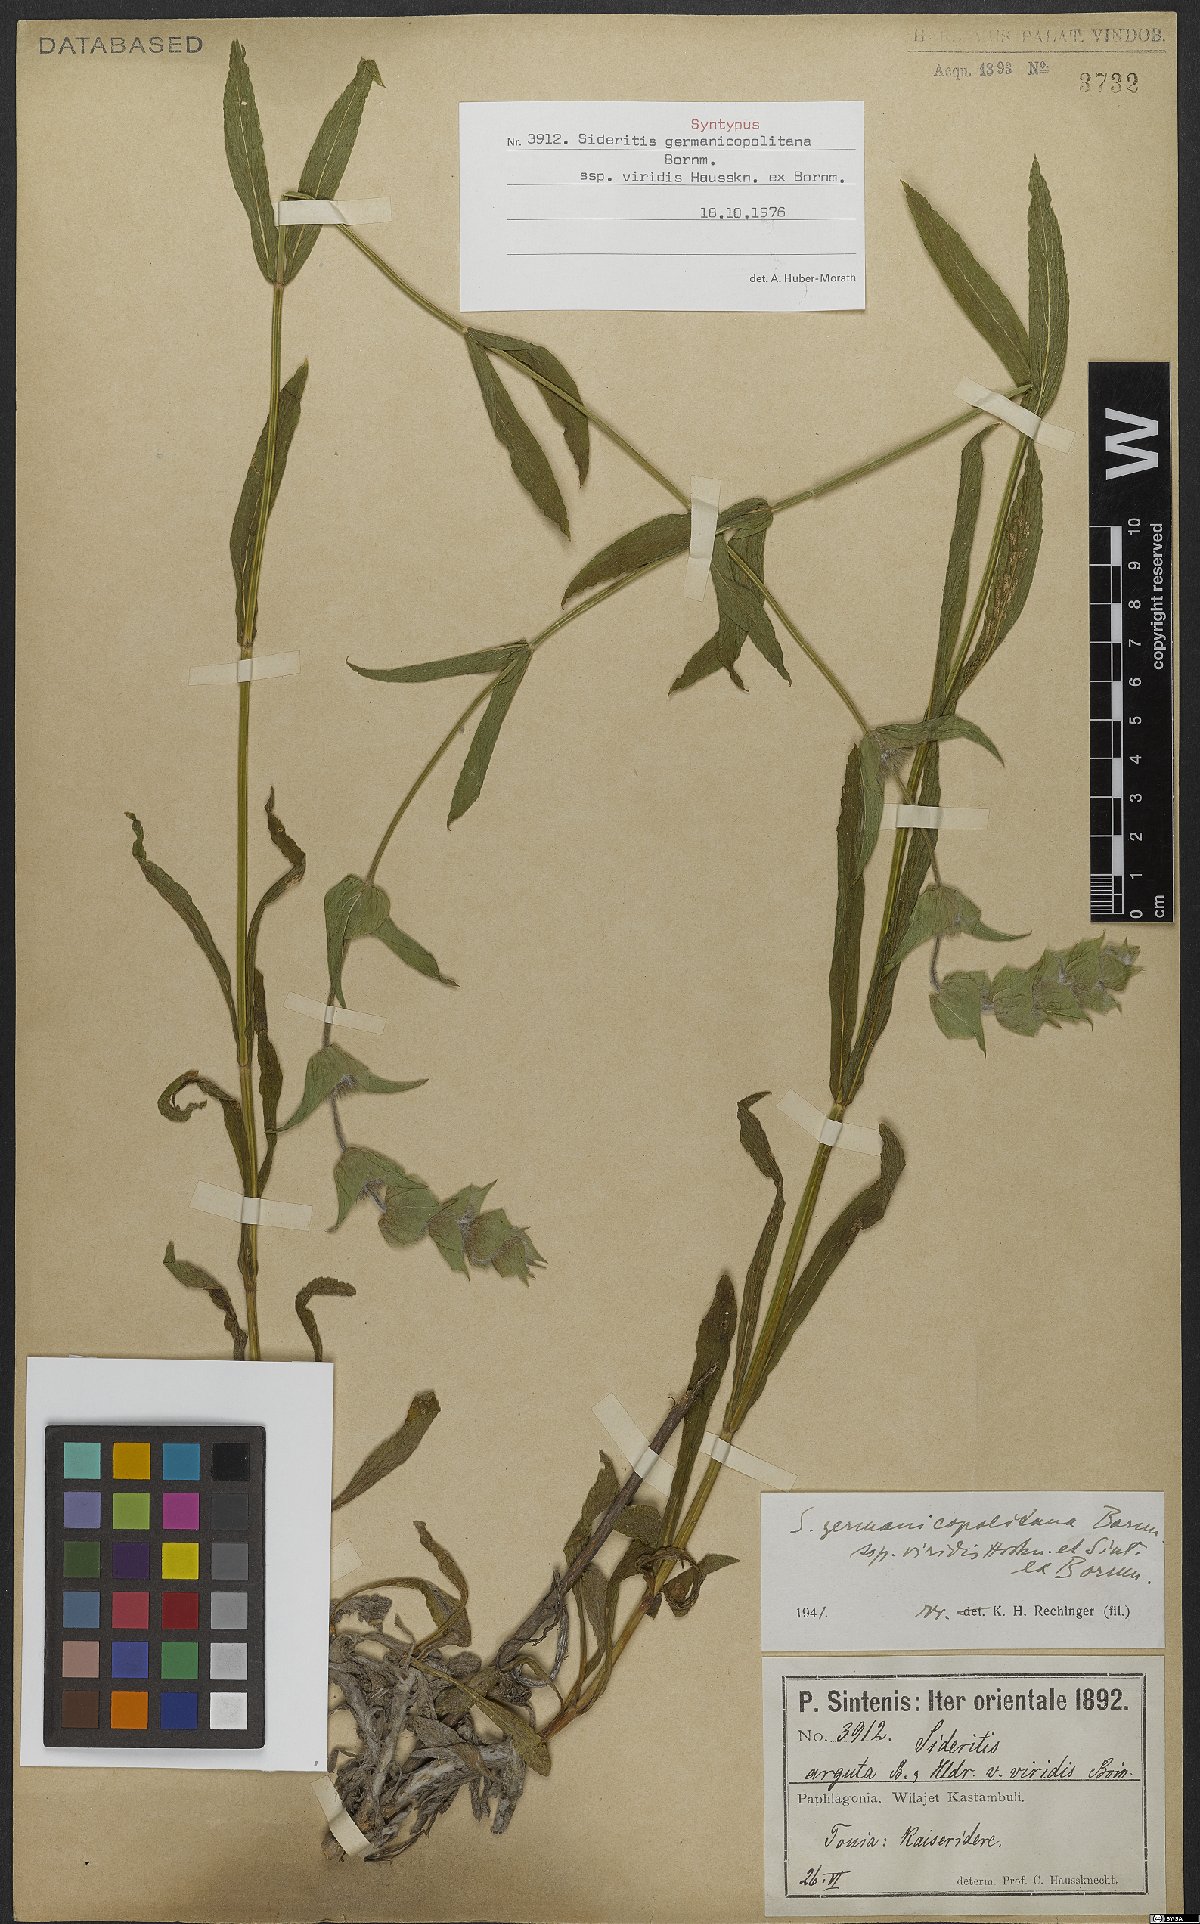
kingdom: Plantae
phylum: Tracheophyta
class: Magnoliopsida
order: Lamiales
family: Lamiaceae
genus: Sideritis
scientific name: Sideritis germanicopolitana
